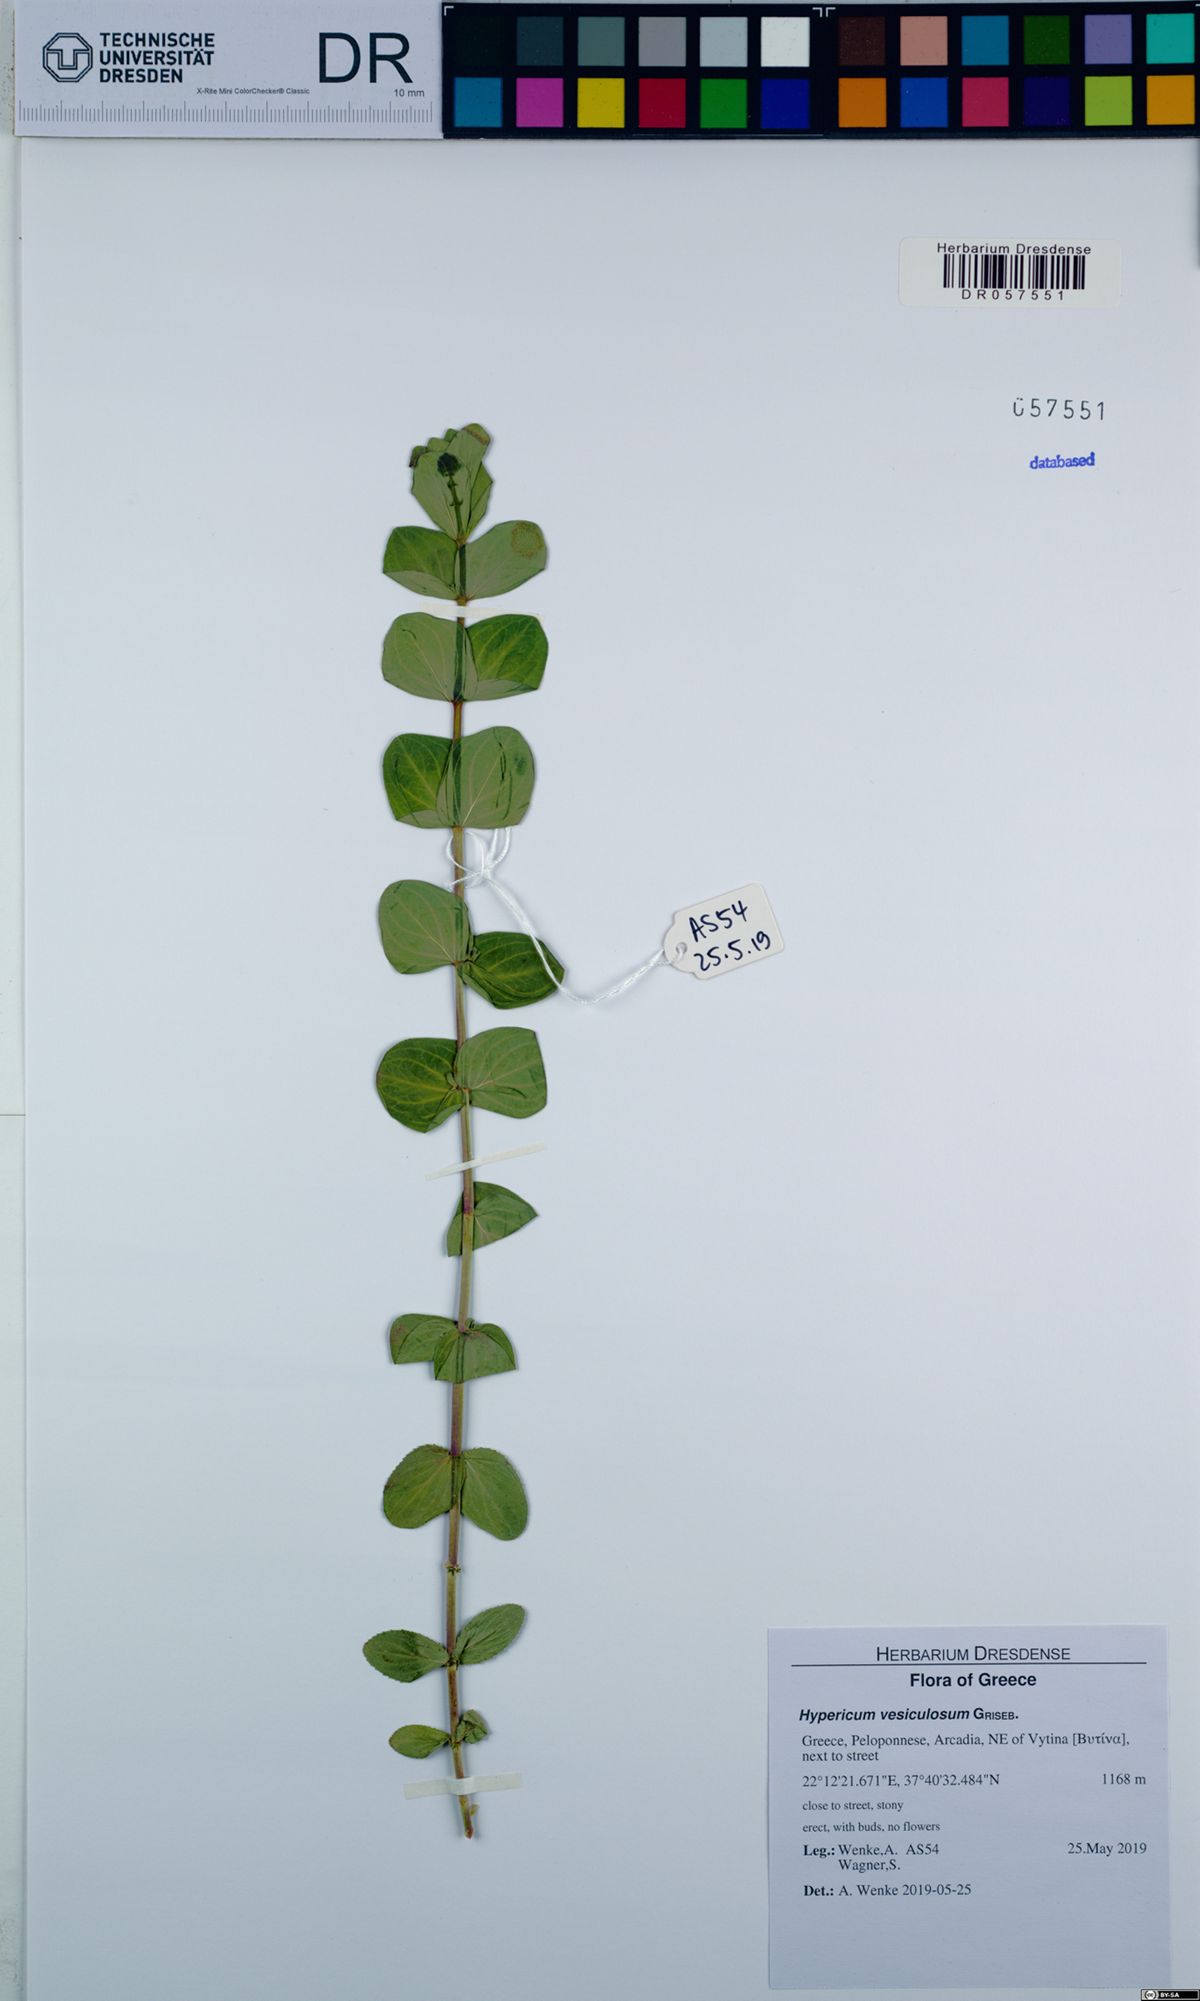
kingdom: Plantae
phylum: Tracheophyta
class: Magnoliopsida
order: Malpighiales
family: Hypericaceae
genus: Hypericum
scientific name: Hypericum vesiculosum
